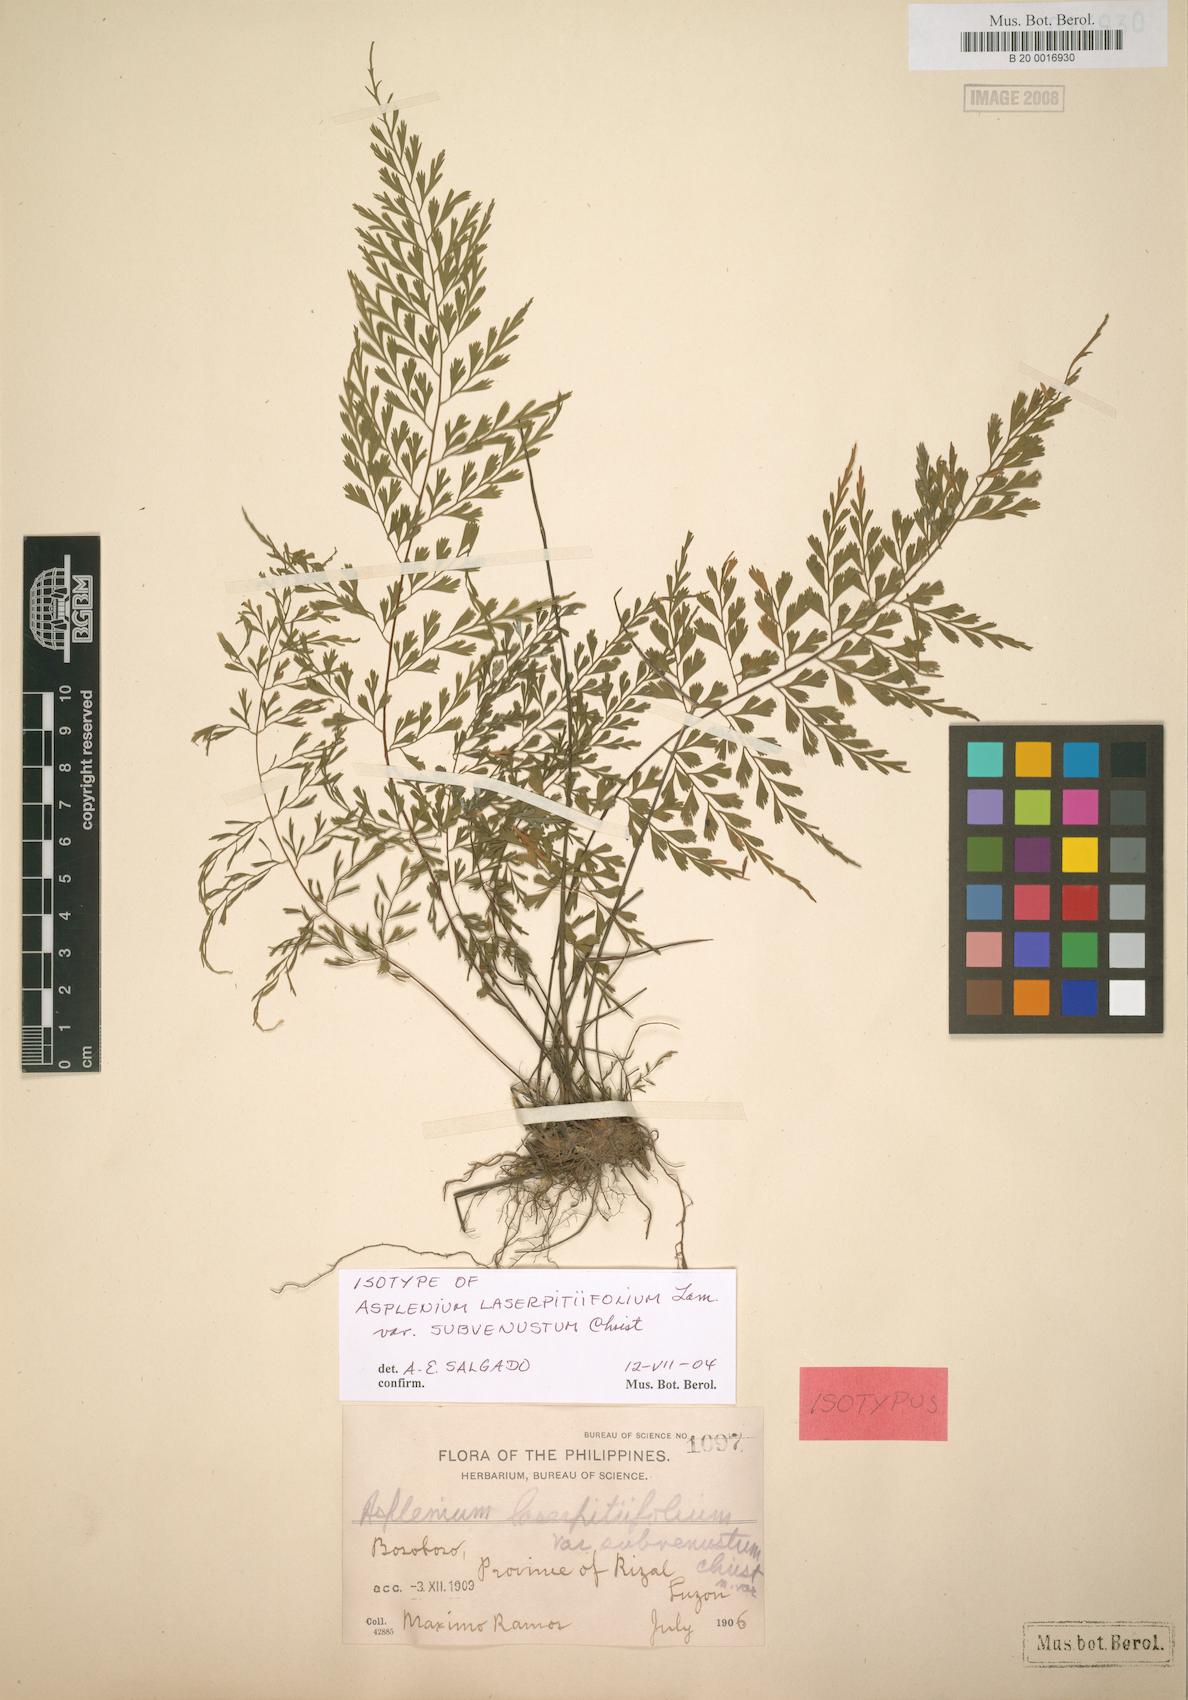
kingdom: Plantae
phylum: Tracheophyta
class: Polypodiopsida
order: Polypodiales
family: Aspleniaceae
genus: Asplenium
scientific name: Asplenium laserpitiifolium
